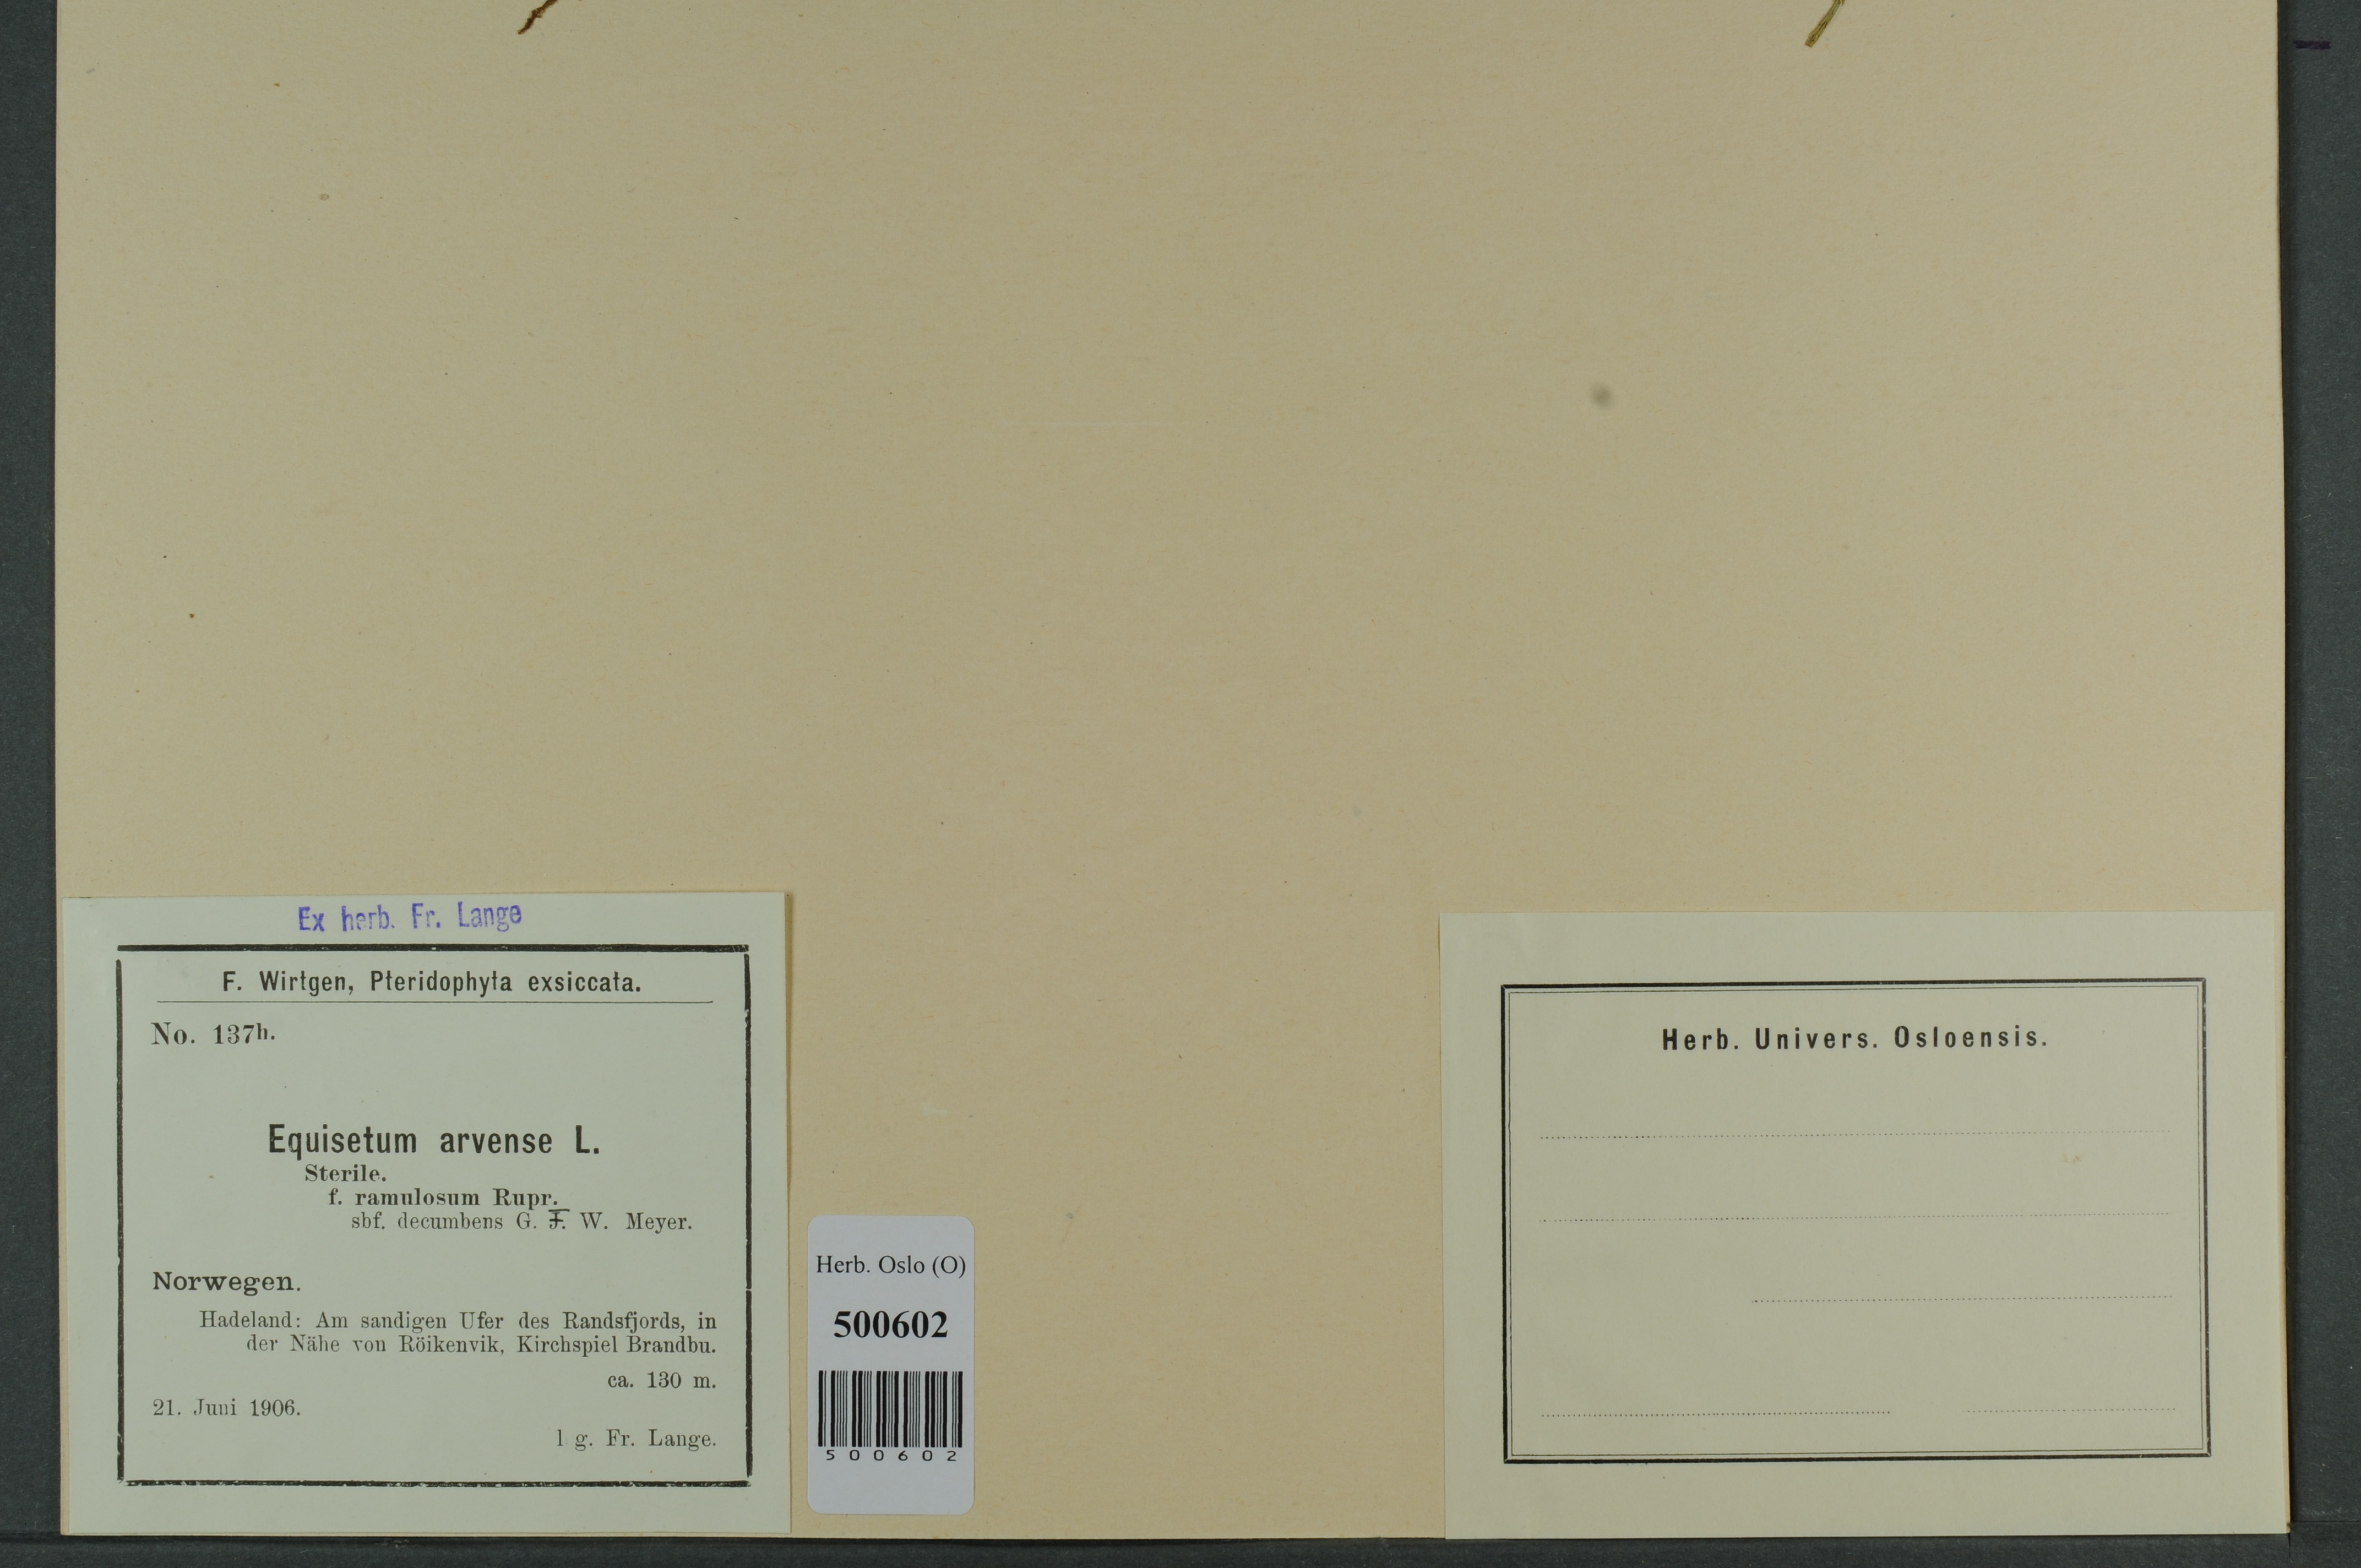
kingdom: Plantae
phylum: Tracheophyta
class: Polypodiopsida
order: Equisetales
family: Equisetaceae
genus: Equisetum
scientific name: Equisetum arvense
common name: Field horsetail
